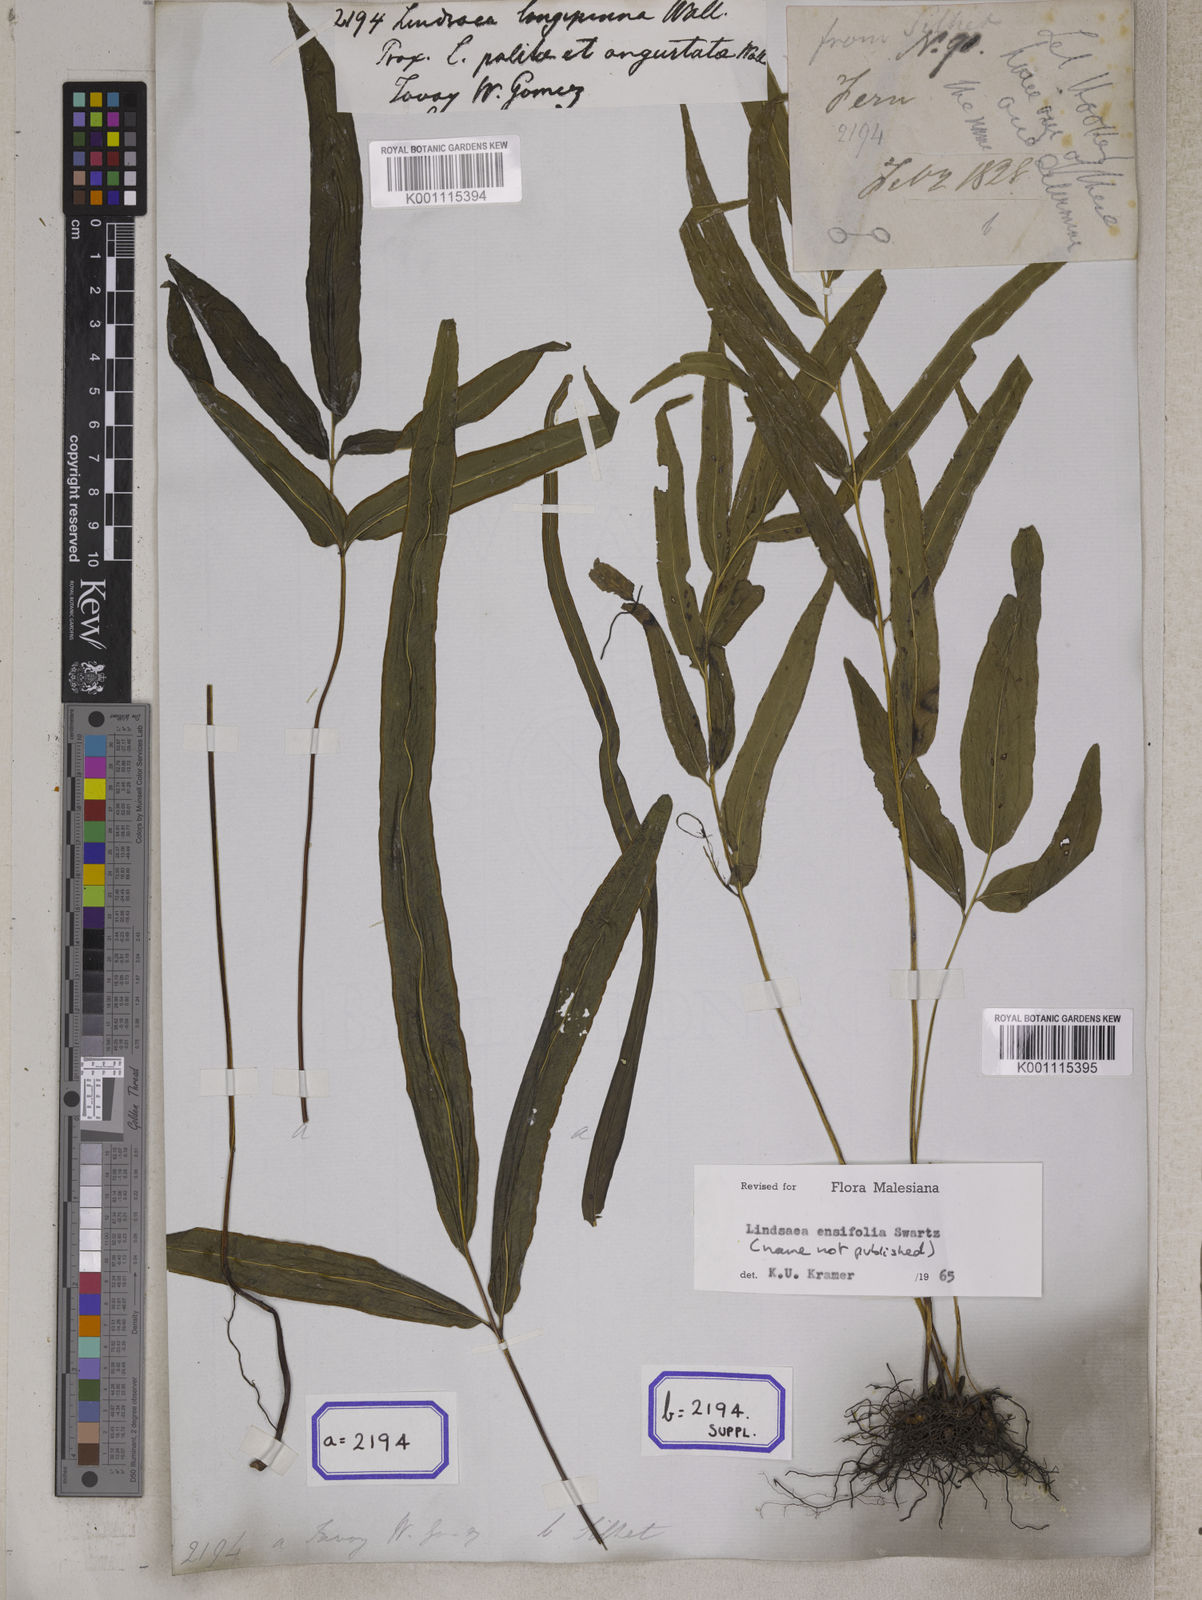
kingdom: Plantae
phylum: Tracheophyta
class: Polypodiopsida
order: Polypodiales
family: Lindsaeaceae
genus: Lindsaea
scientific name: Lindsaea ensifolia
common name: Graceful necklace fern
